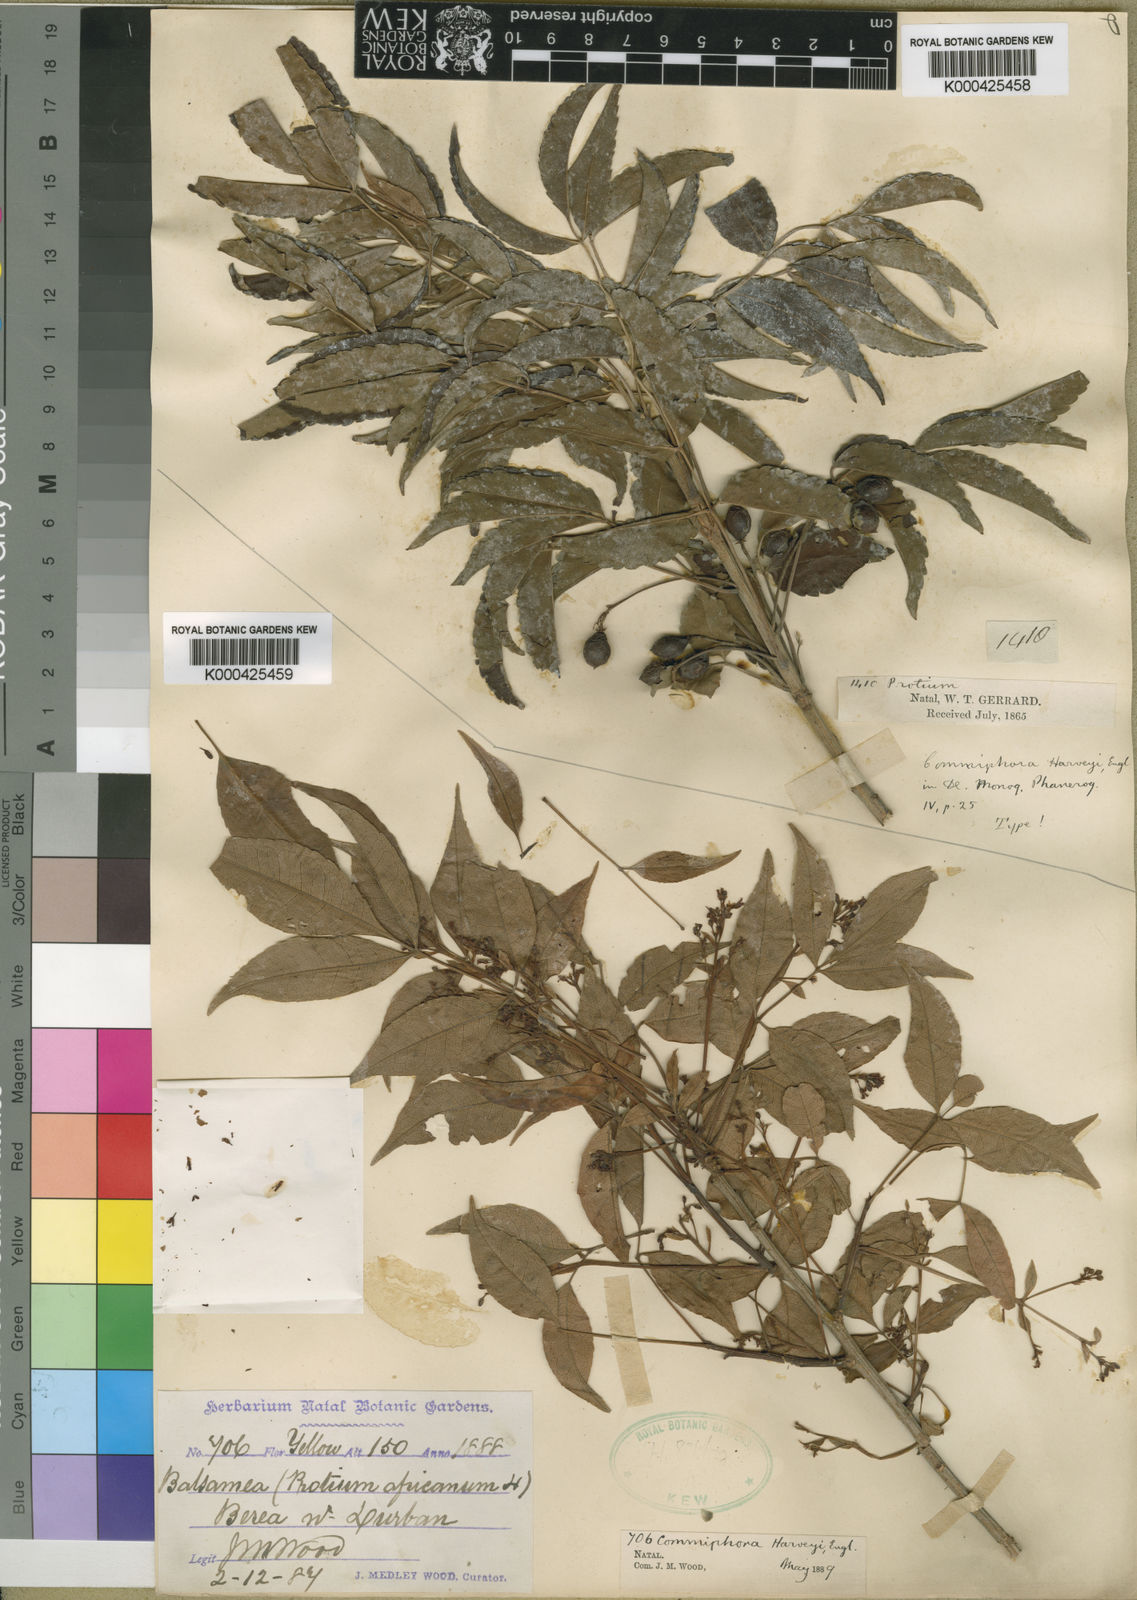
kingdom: Plantae
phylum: Tracheophyta
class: Magnoliopsida
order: Sapindales
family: Burseraceae
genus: Commiphora
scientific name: Commiphora harveyi
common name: Copper-stem corkwood
